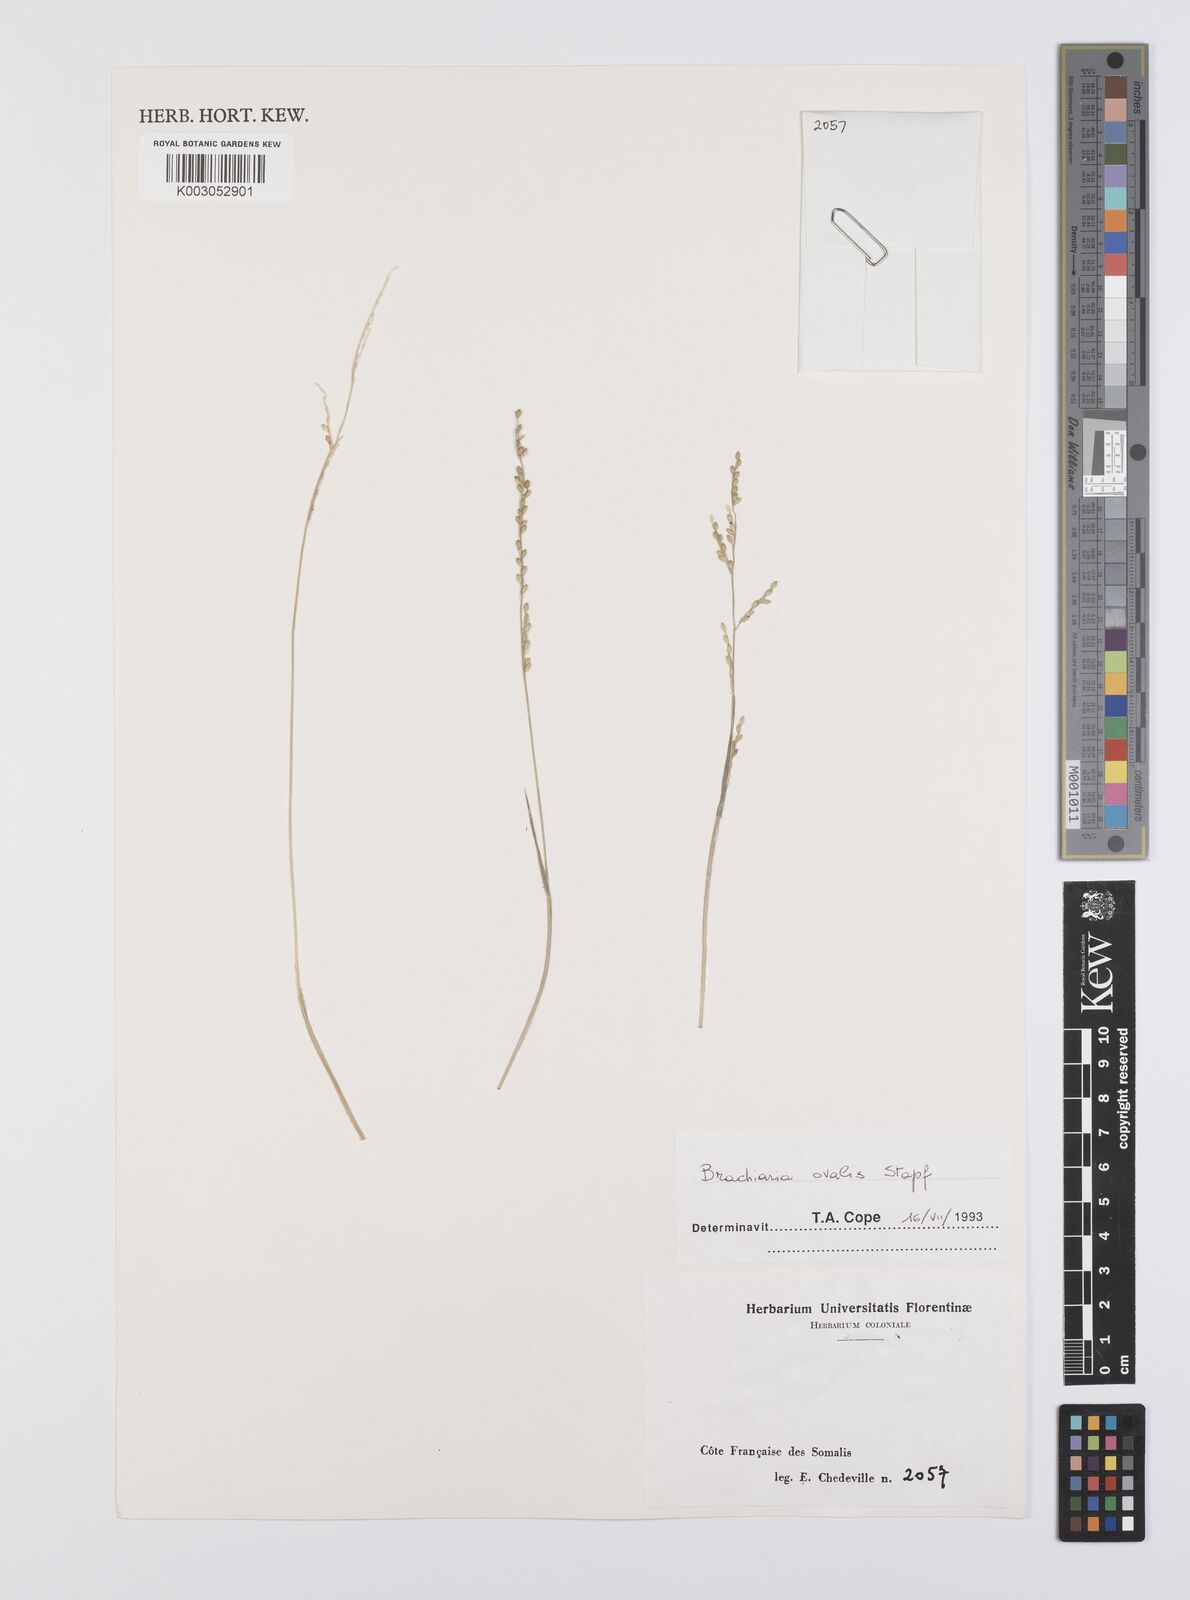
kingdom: Plantae
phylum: Tracheophyta
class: Liliopsida
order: Poales
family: Poaceae
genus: Urochloa
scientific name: Urochloa ovalis
